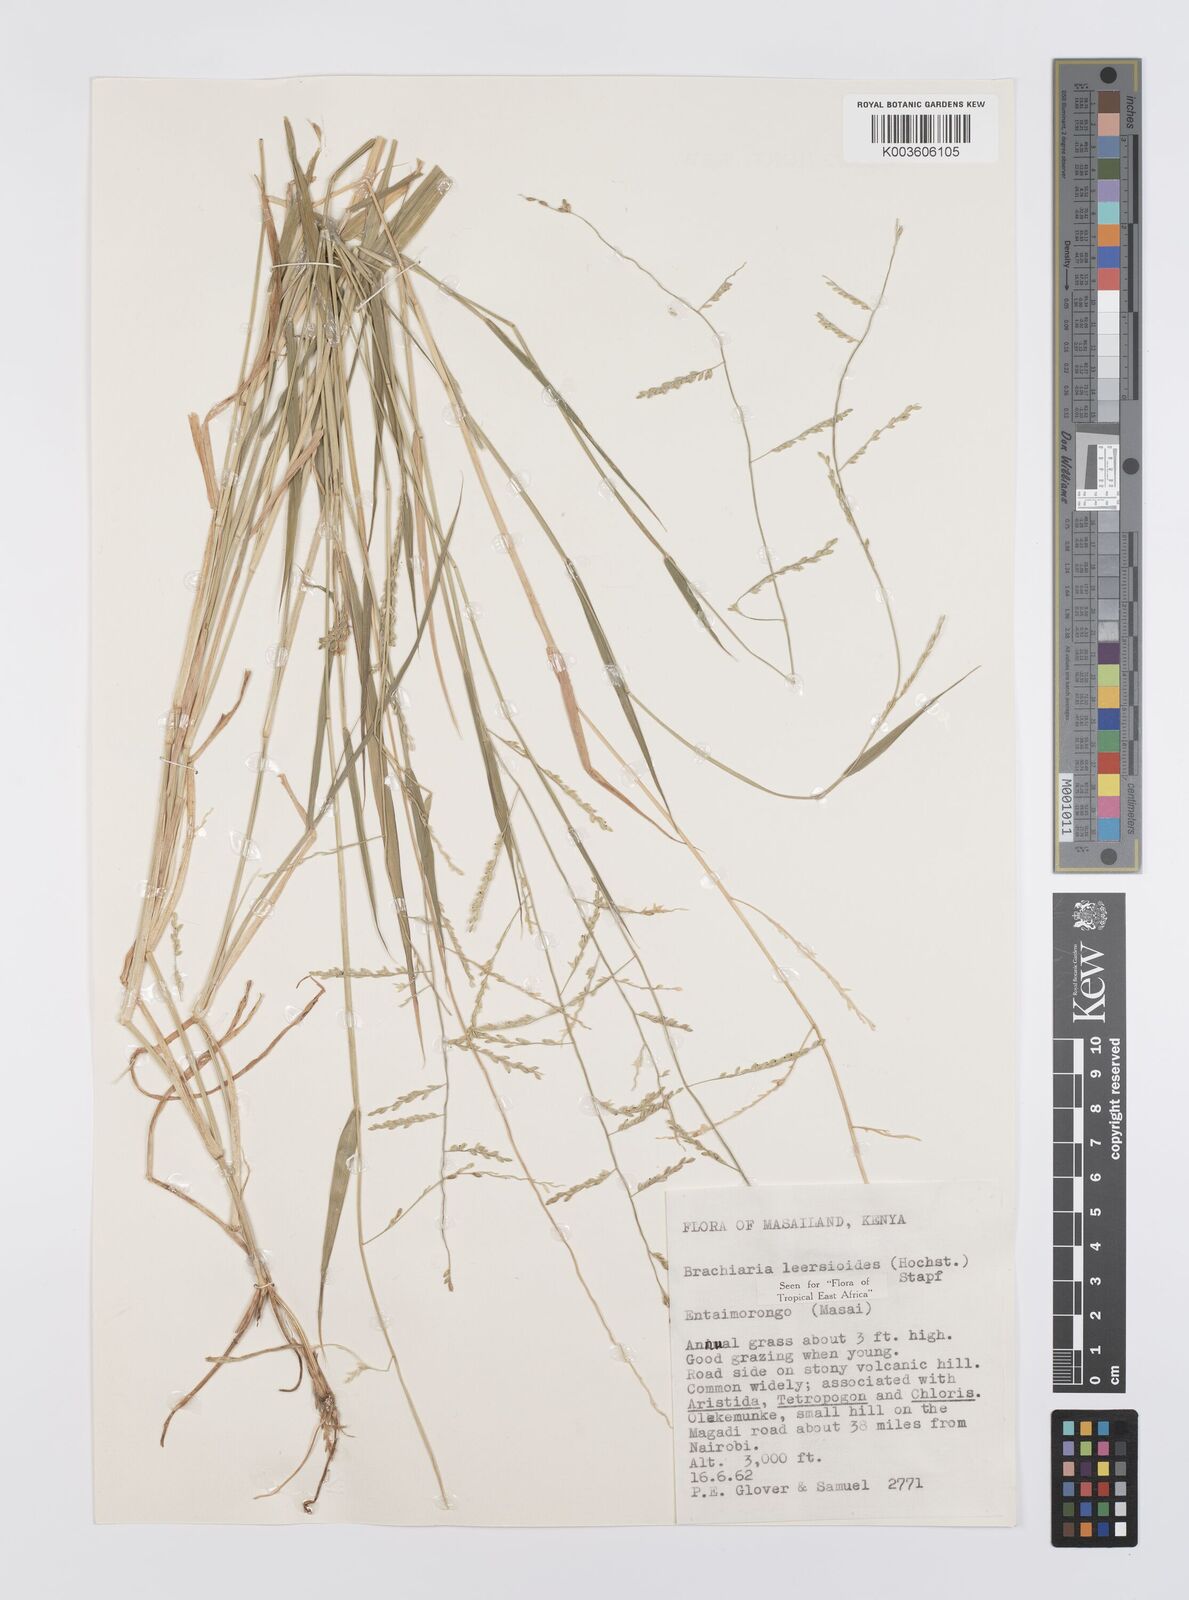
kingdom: Plantae
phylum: Tracheophyta
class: Liliopsida
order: Poales
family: Poaceae
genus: Urochloa
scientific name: Urochloa leersioides
